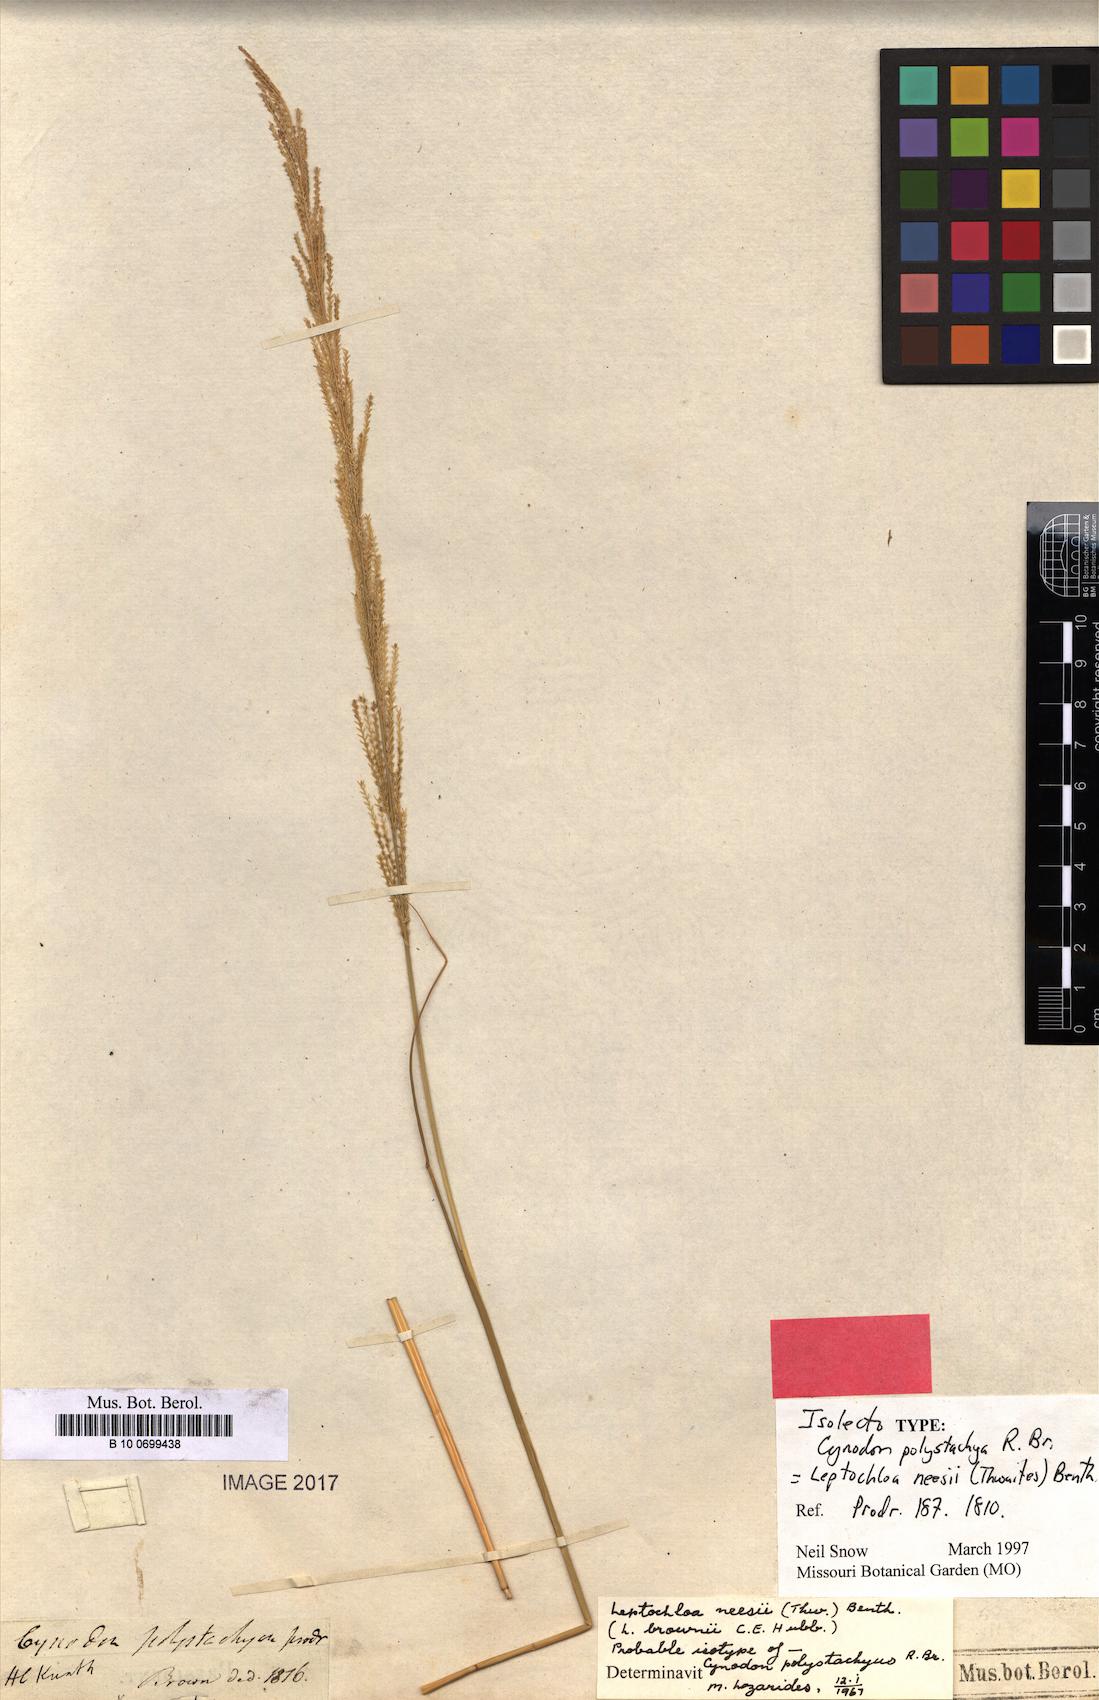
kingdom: Plantae
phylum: Tracheophyta
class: Liliopsida
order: Poales
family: Poaceae
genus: Dinebra
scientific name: Dinebra polystachyos
